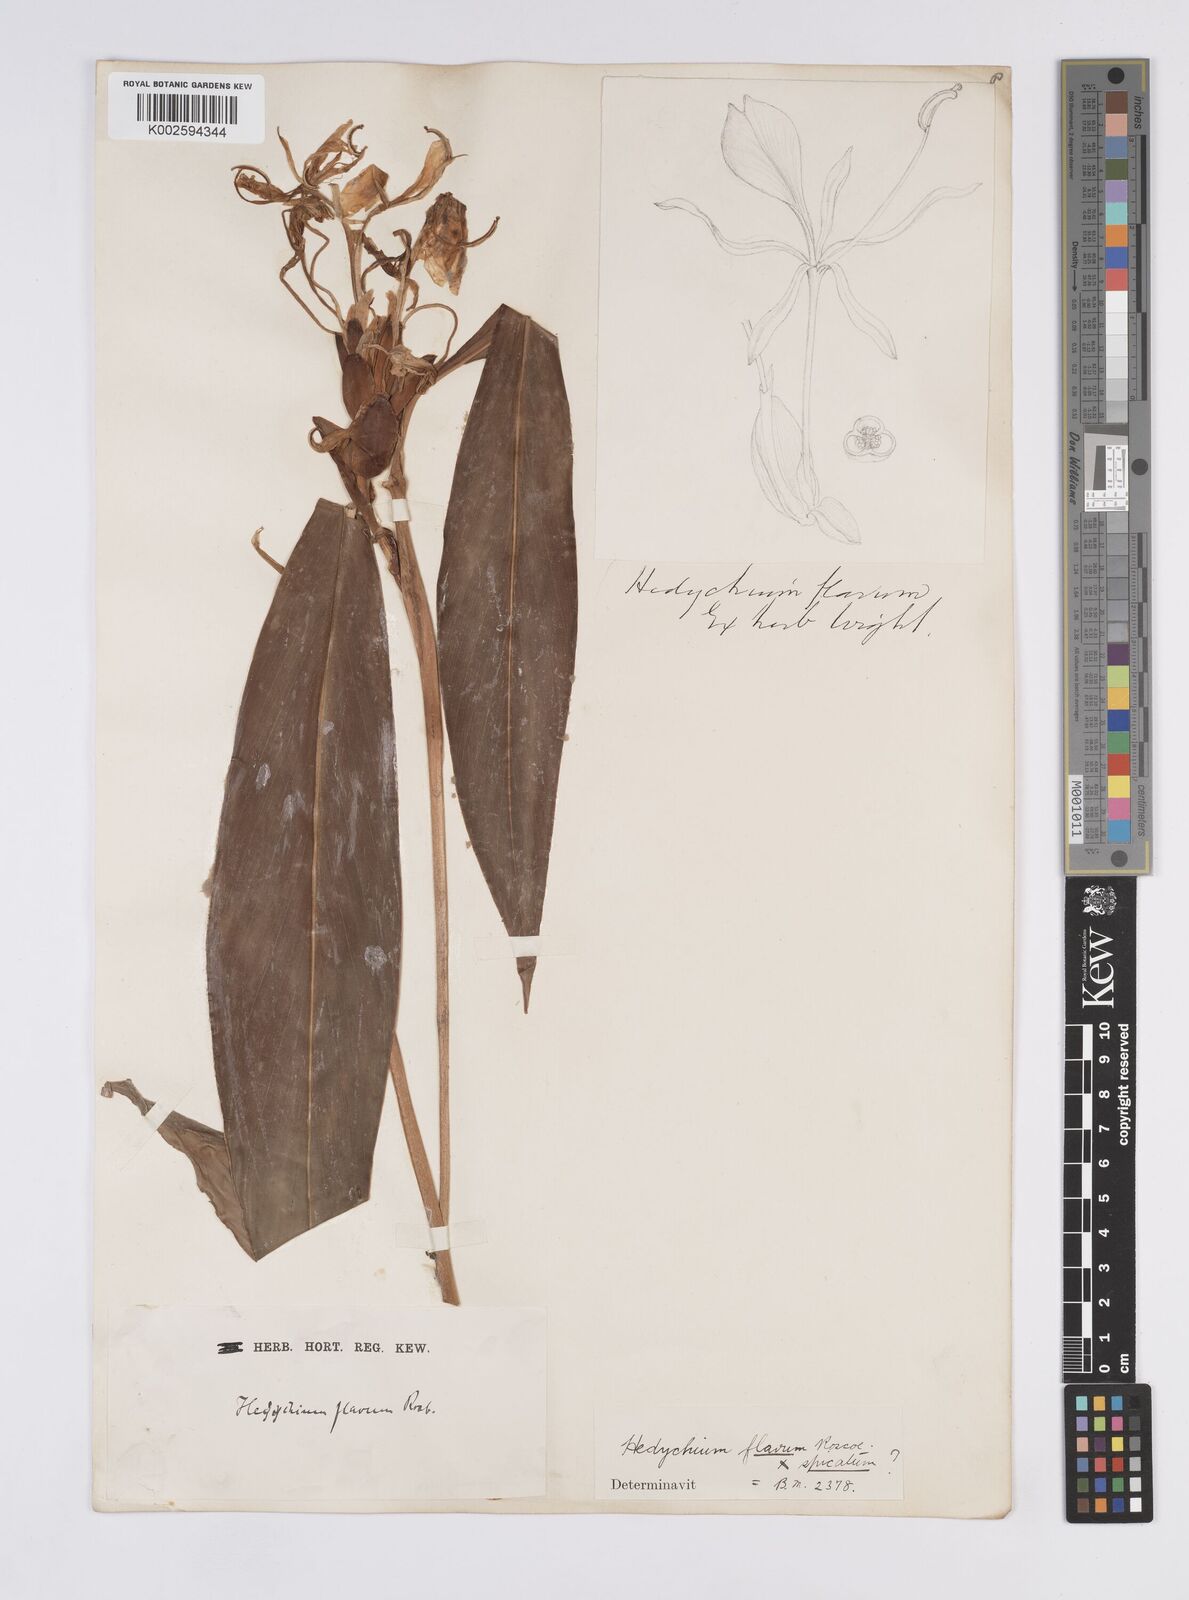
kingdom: Plantae
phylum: Tracheophyta
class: Liliopsida
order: Zingiberales
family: Zingiberaceae
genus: Hedychium
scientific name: Hedychium
